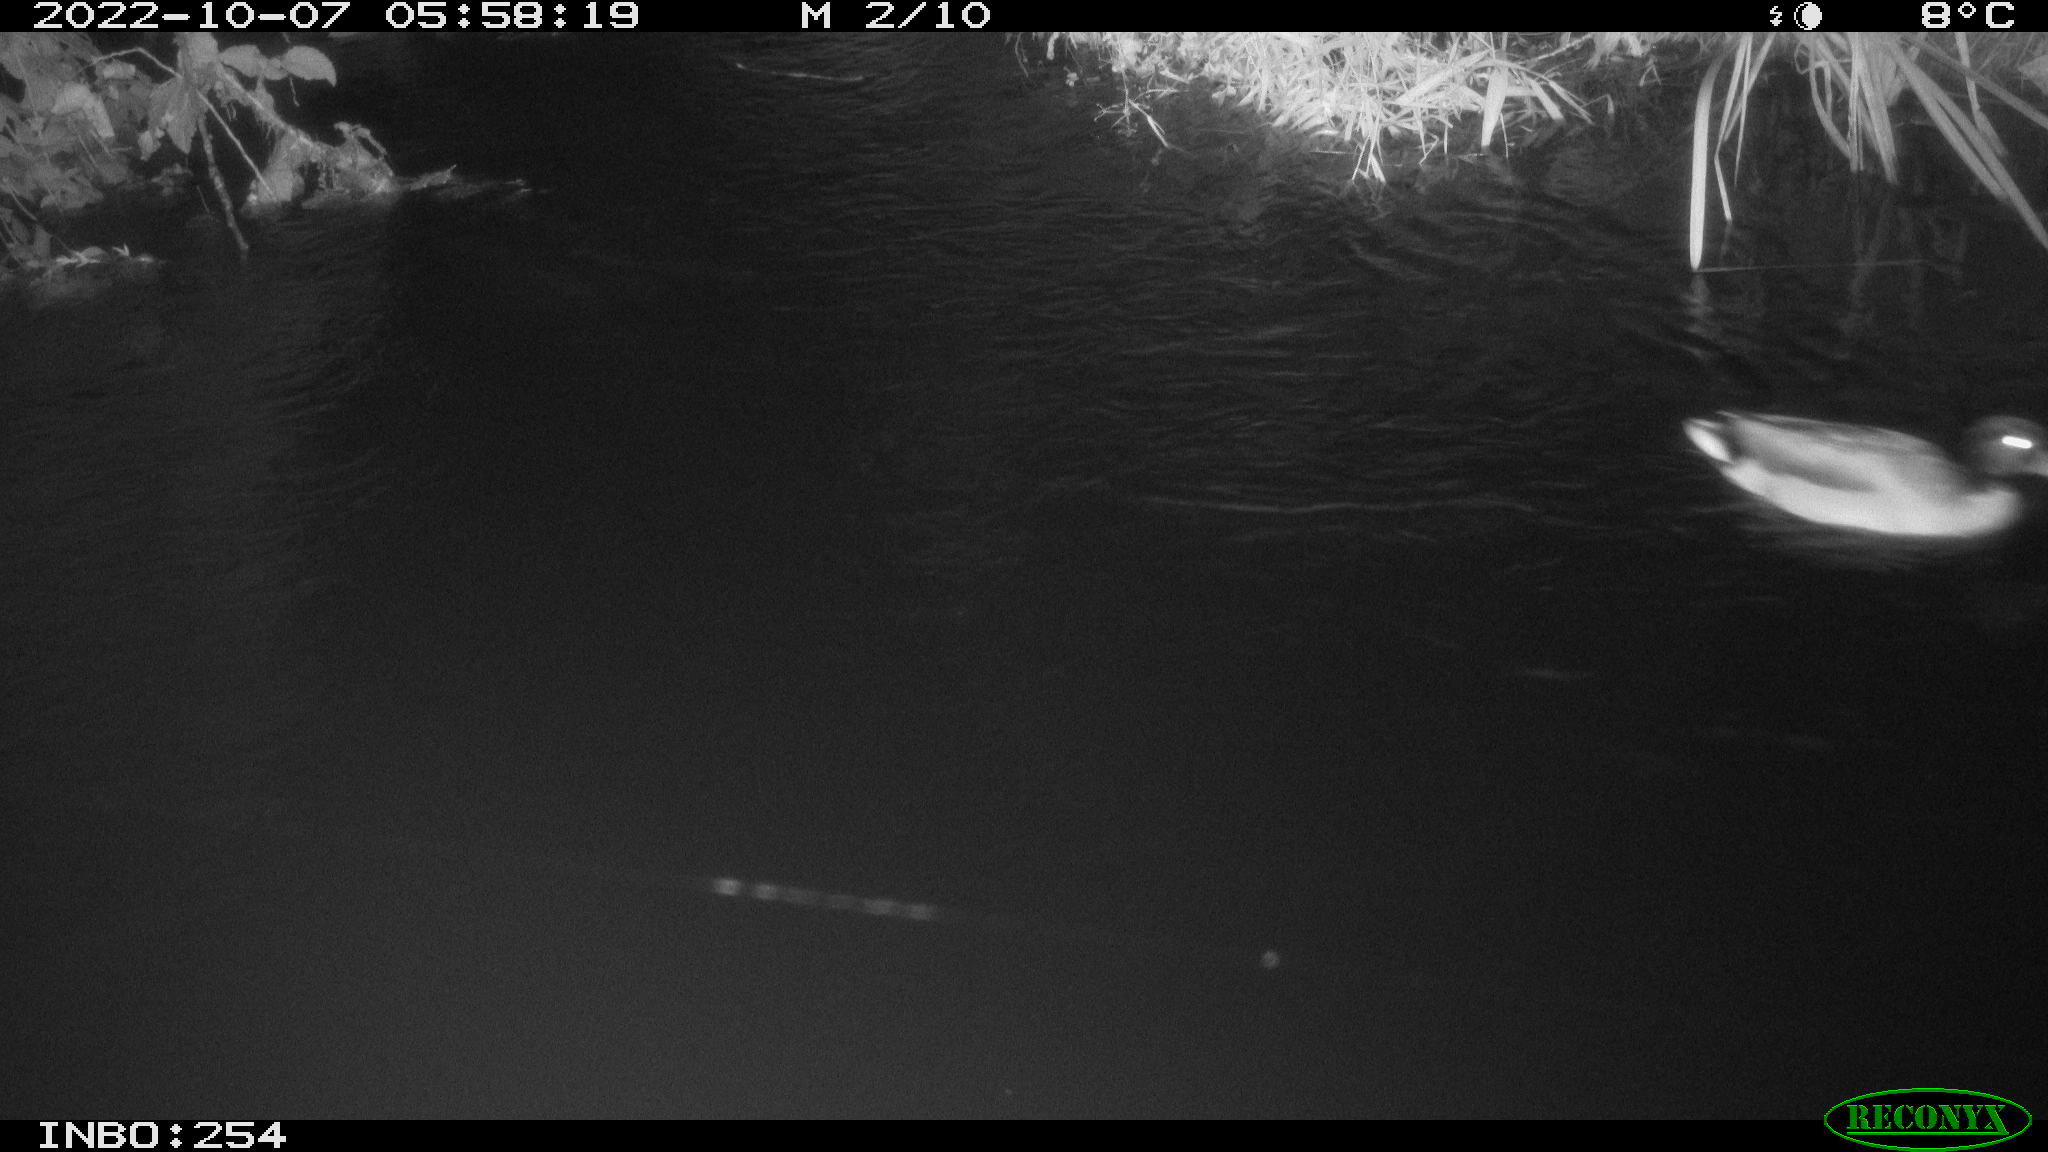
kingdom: Animalia
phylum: Chordata
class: Aves
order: Anseriformes
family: Anatidae
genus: Anas
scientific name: Anas
